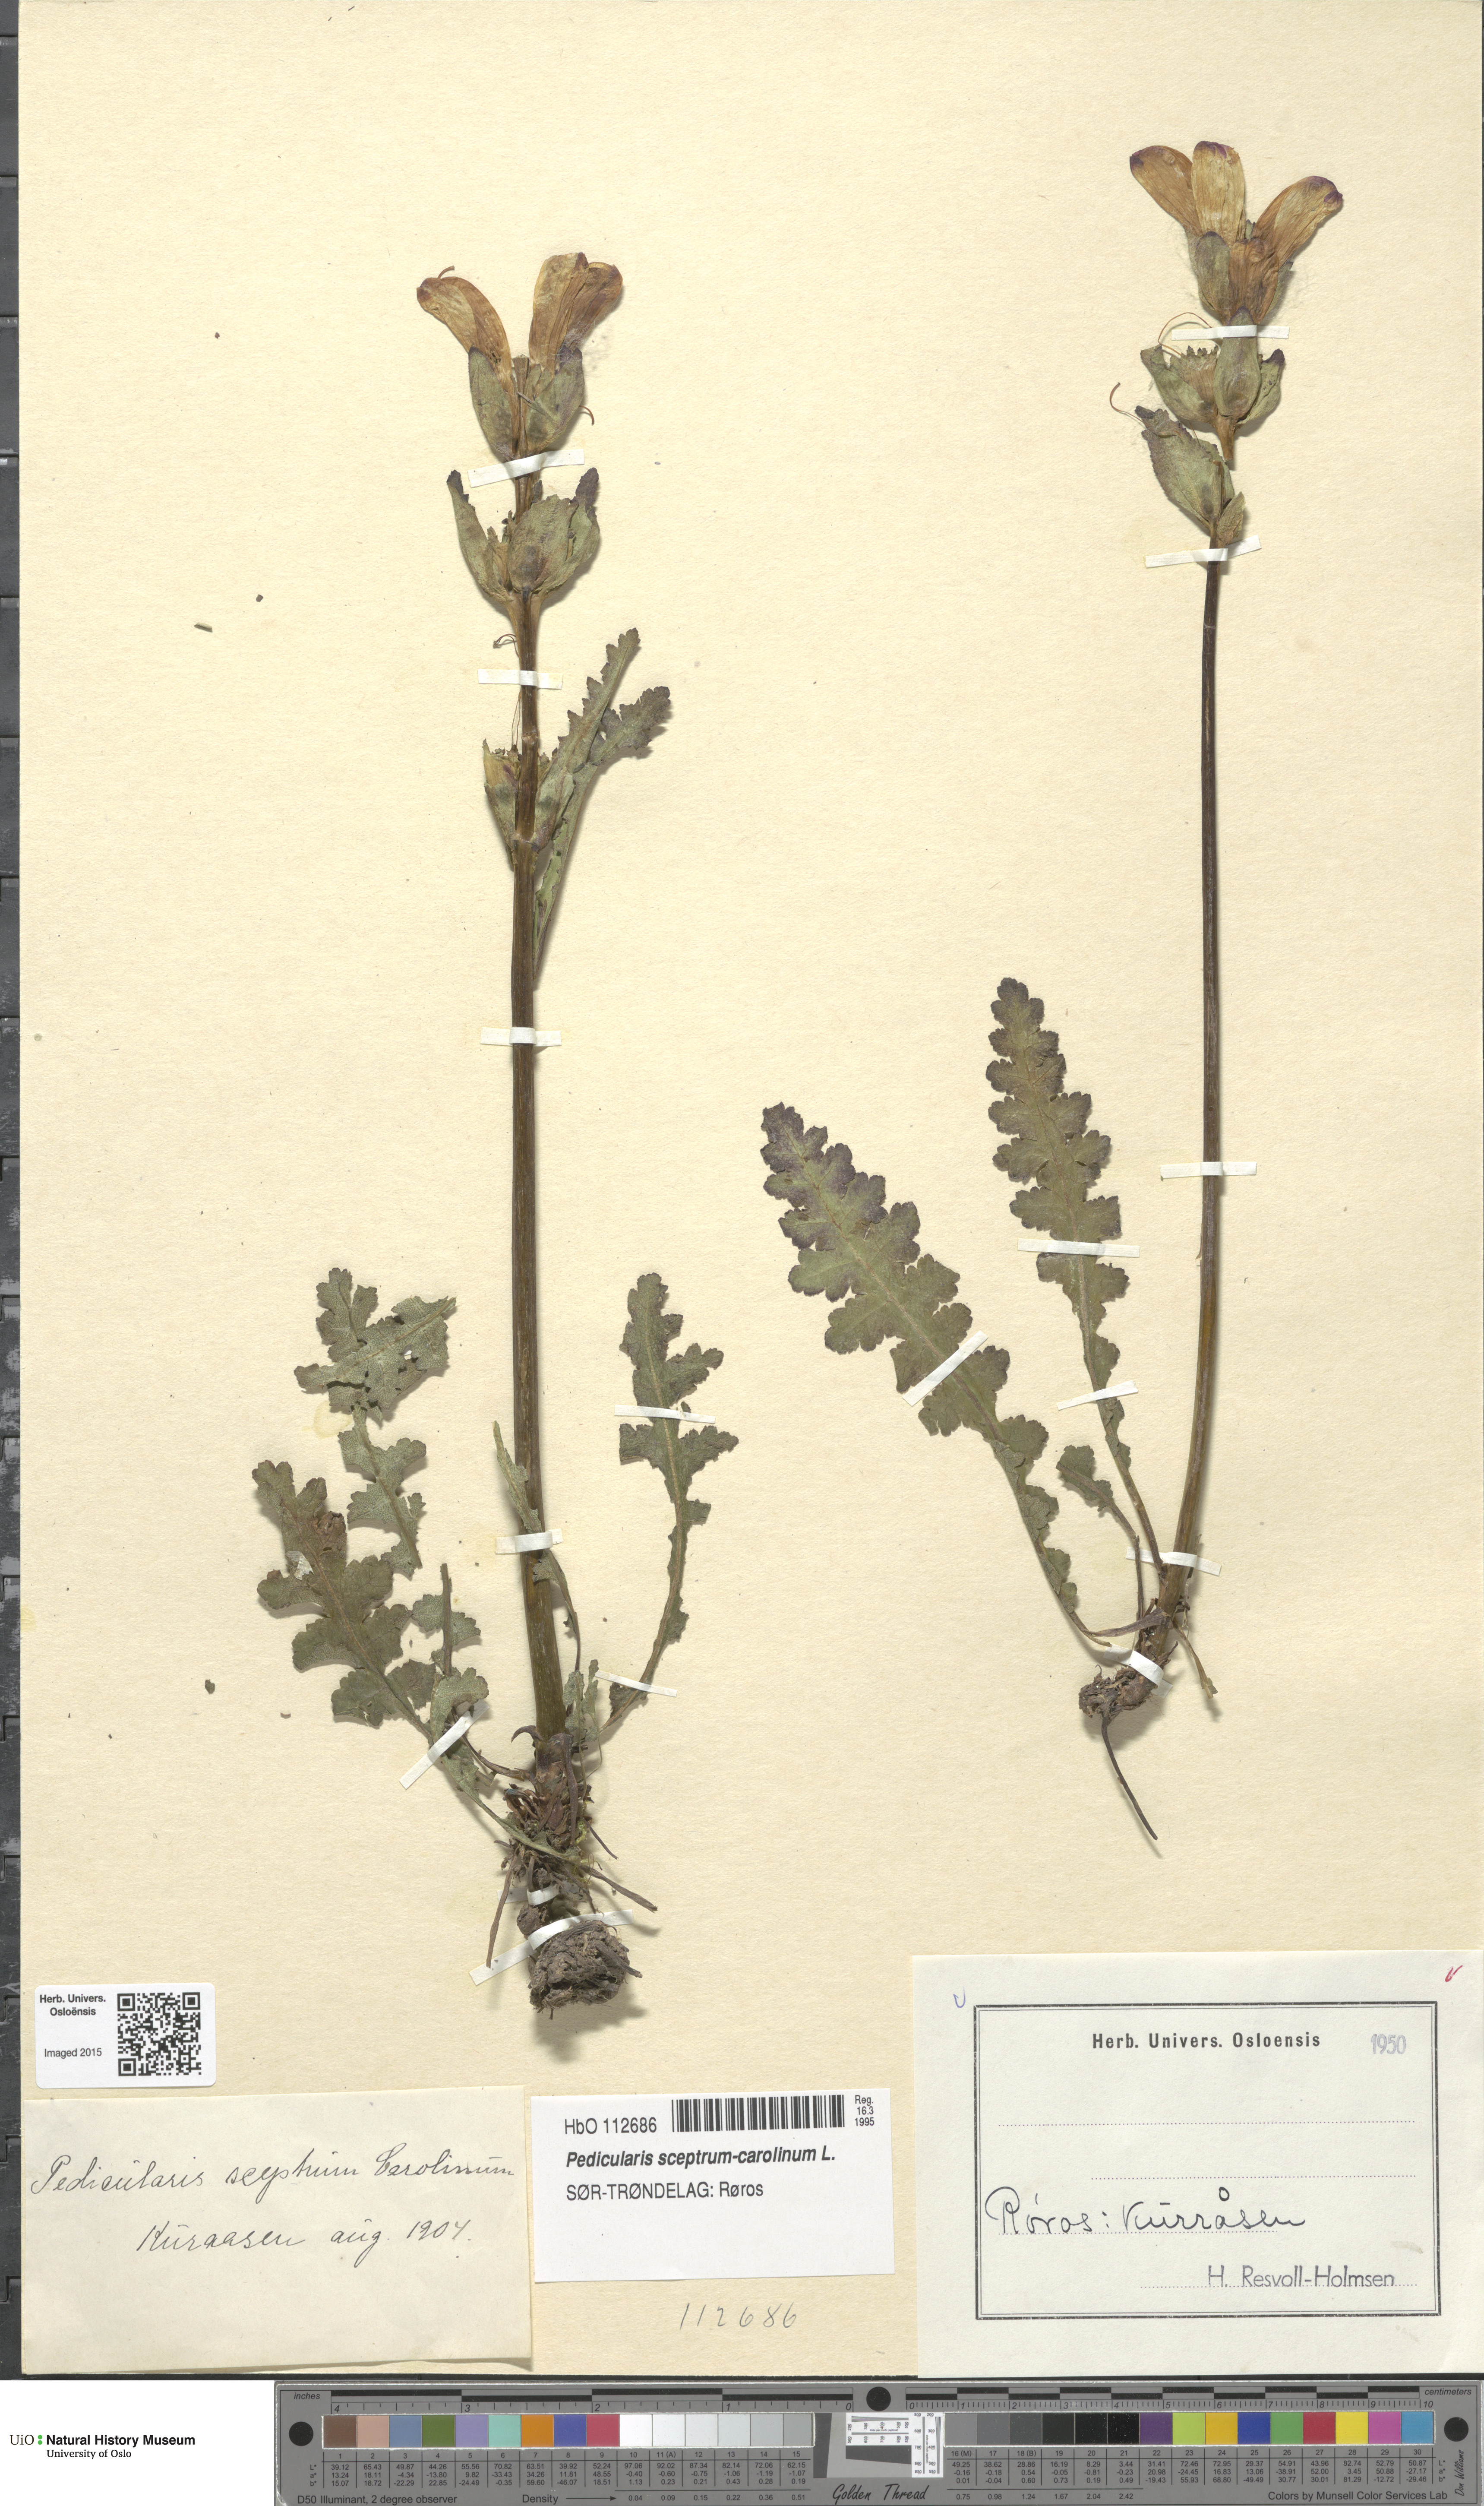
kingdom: Plantae
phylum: Tracheophyta
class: Magnoliopsida
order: Lamiales
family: Orobanchaceae
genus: Pedicularis
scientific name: Pedicularis sceptrum-carolinum
